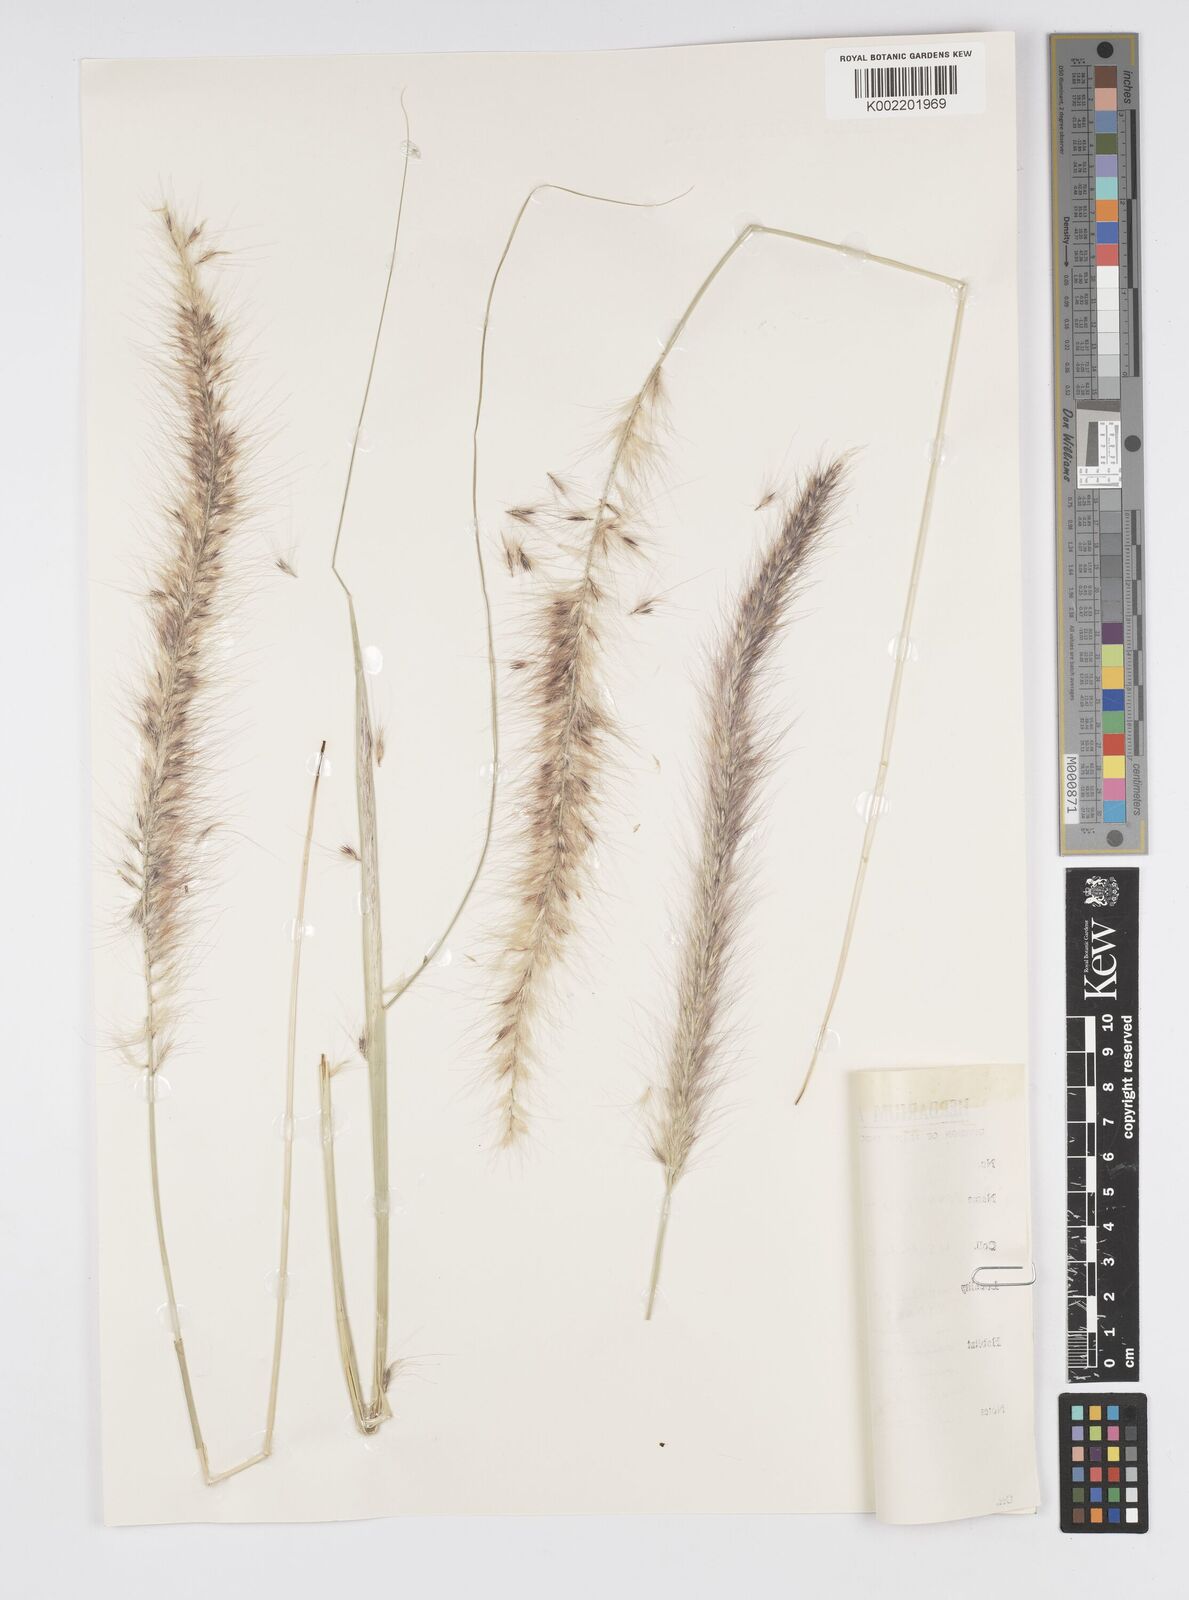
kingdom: Plantae
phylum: Tracheophyta
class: Liliopsida
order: Poales
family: Poaceae
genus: Cenchrus
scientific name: Cenchrus setaceus
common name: Crimson fountaingrass
